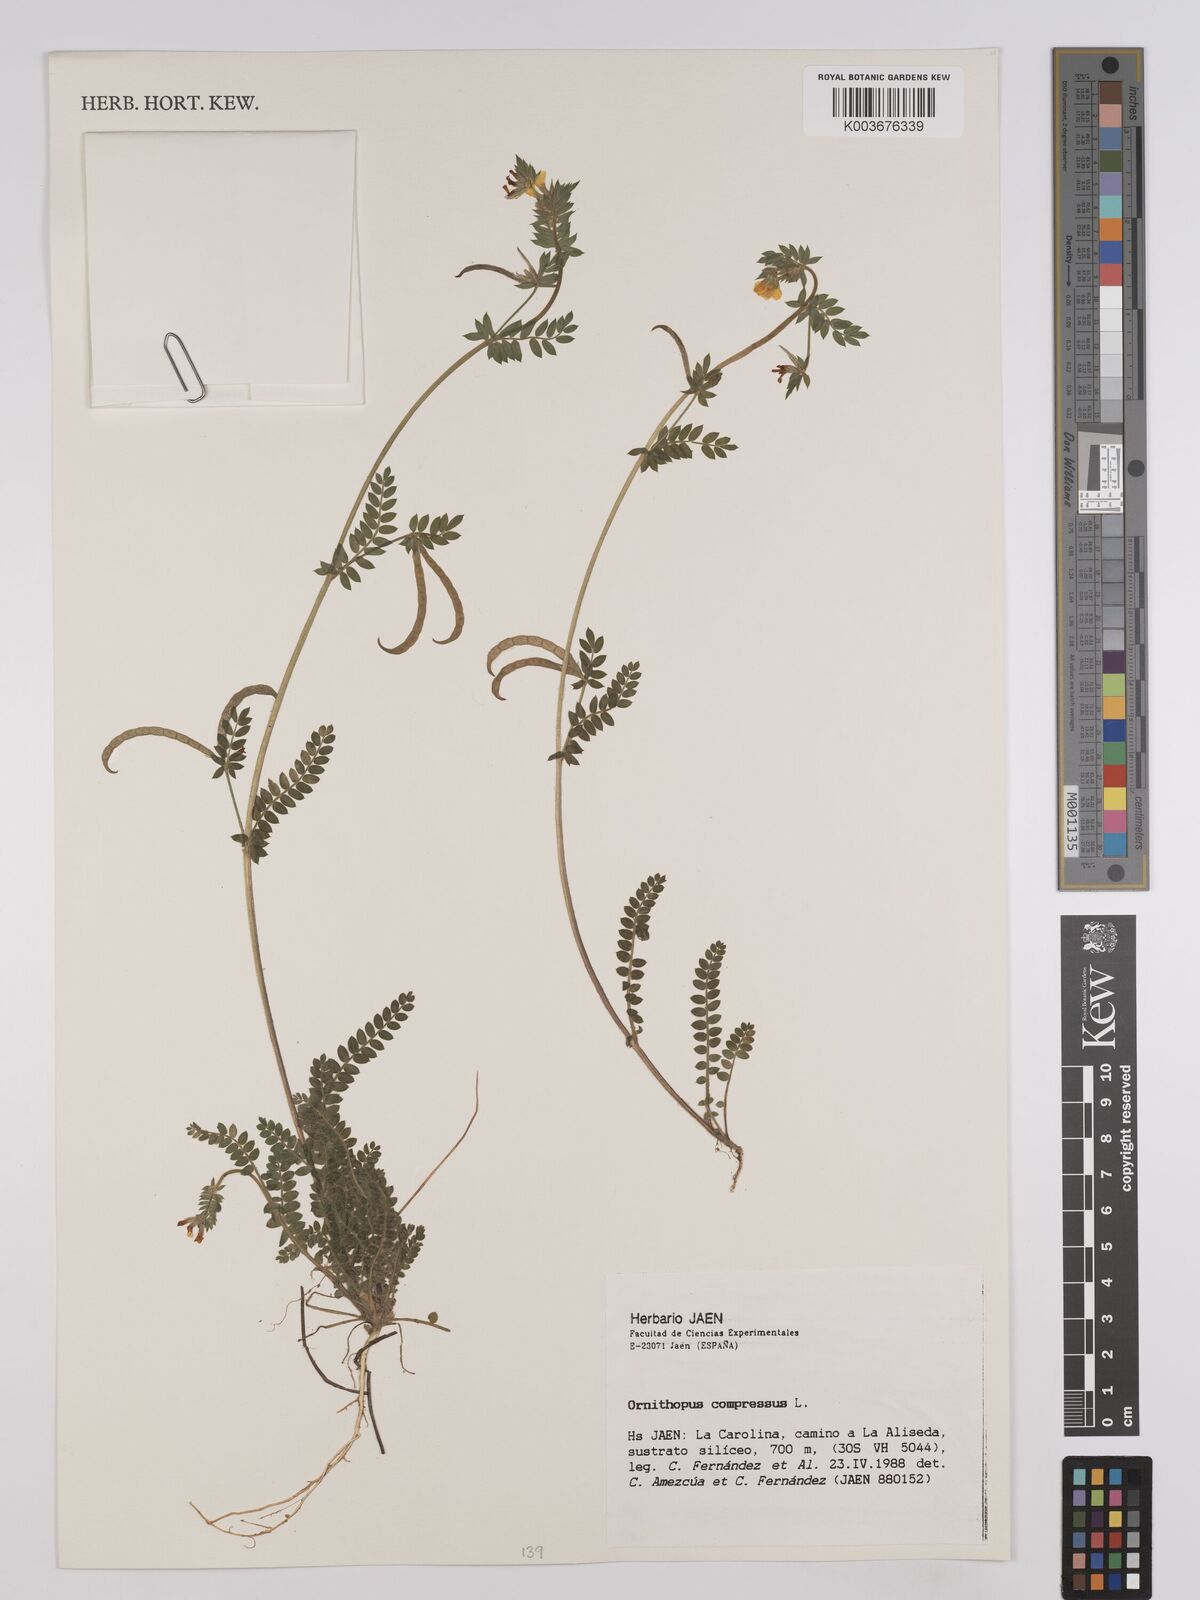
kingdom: Plantae
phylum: Tracheophyta
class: Magnoliopsida
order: Fabales
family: Fabaceae
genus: Ornithopus
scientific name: Ornithopus compressus
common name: Yellow serradella
